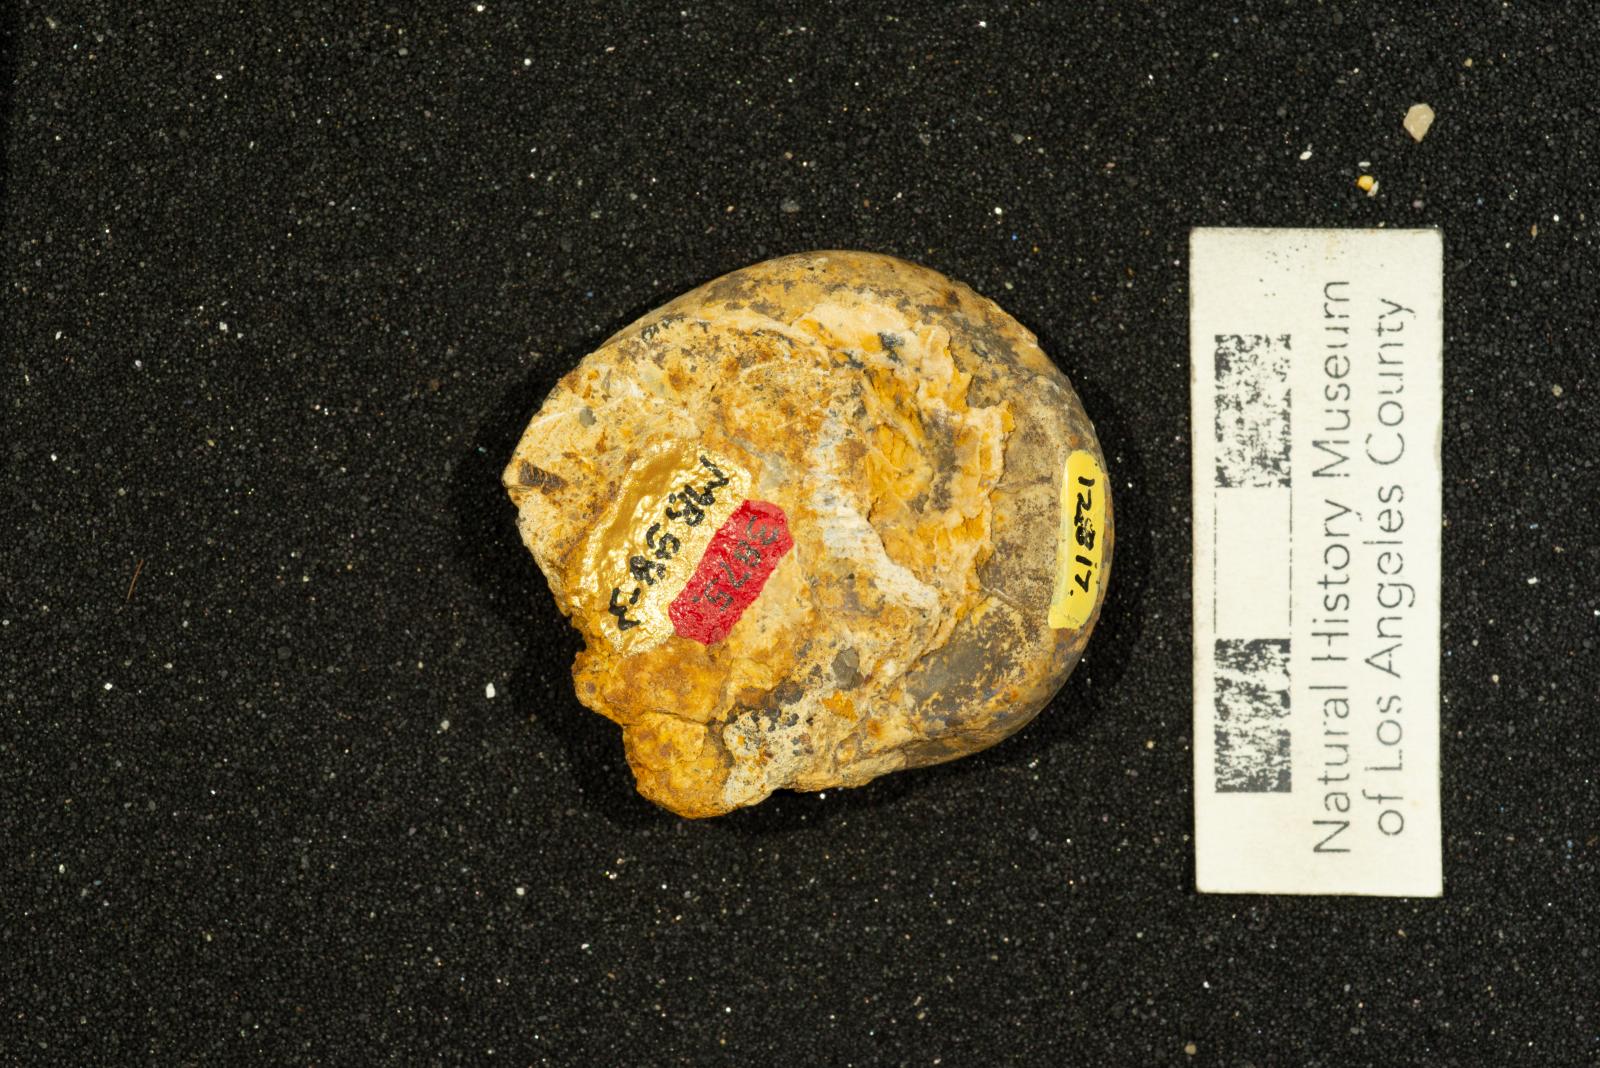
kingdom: Animalia
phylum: Mollusca
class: Gastropoda
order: Littorinimorpha
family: Xenophoridae
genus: Xenophora
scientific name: Xenophora hermax
